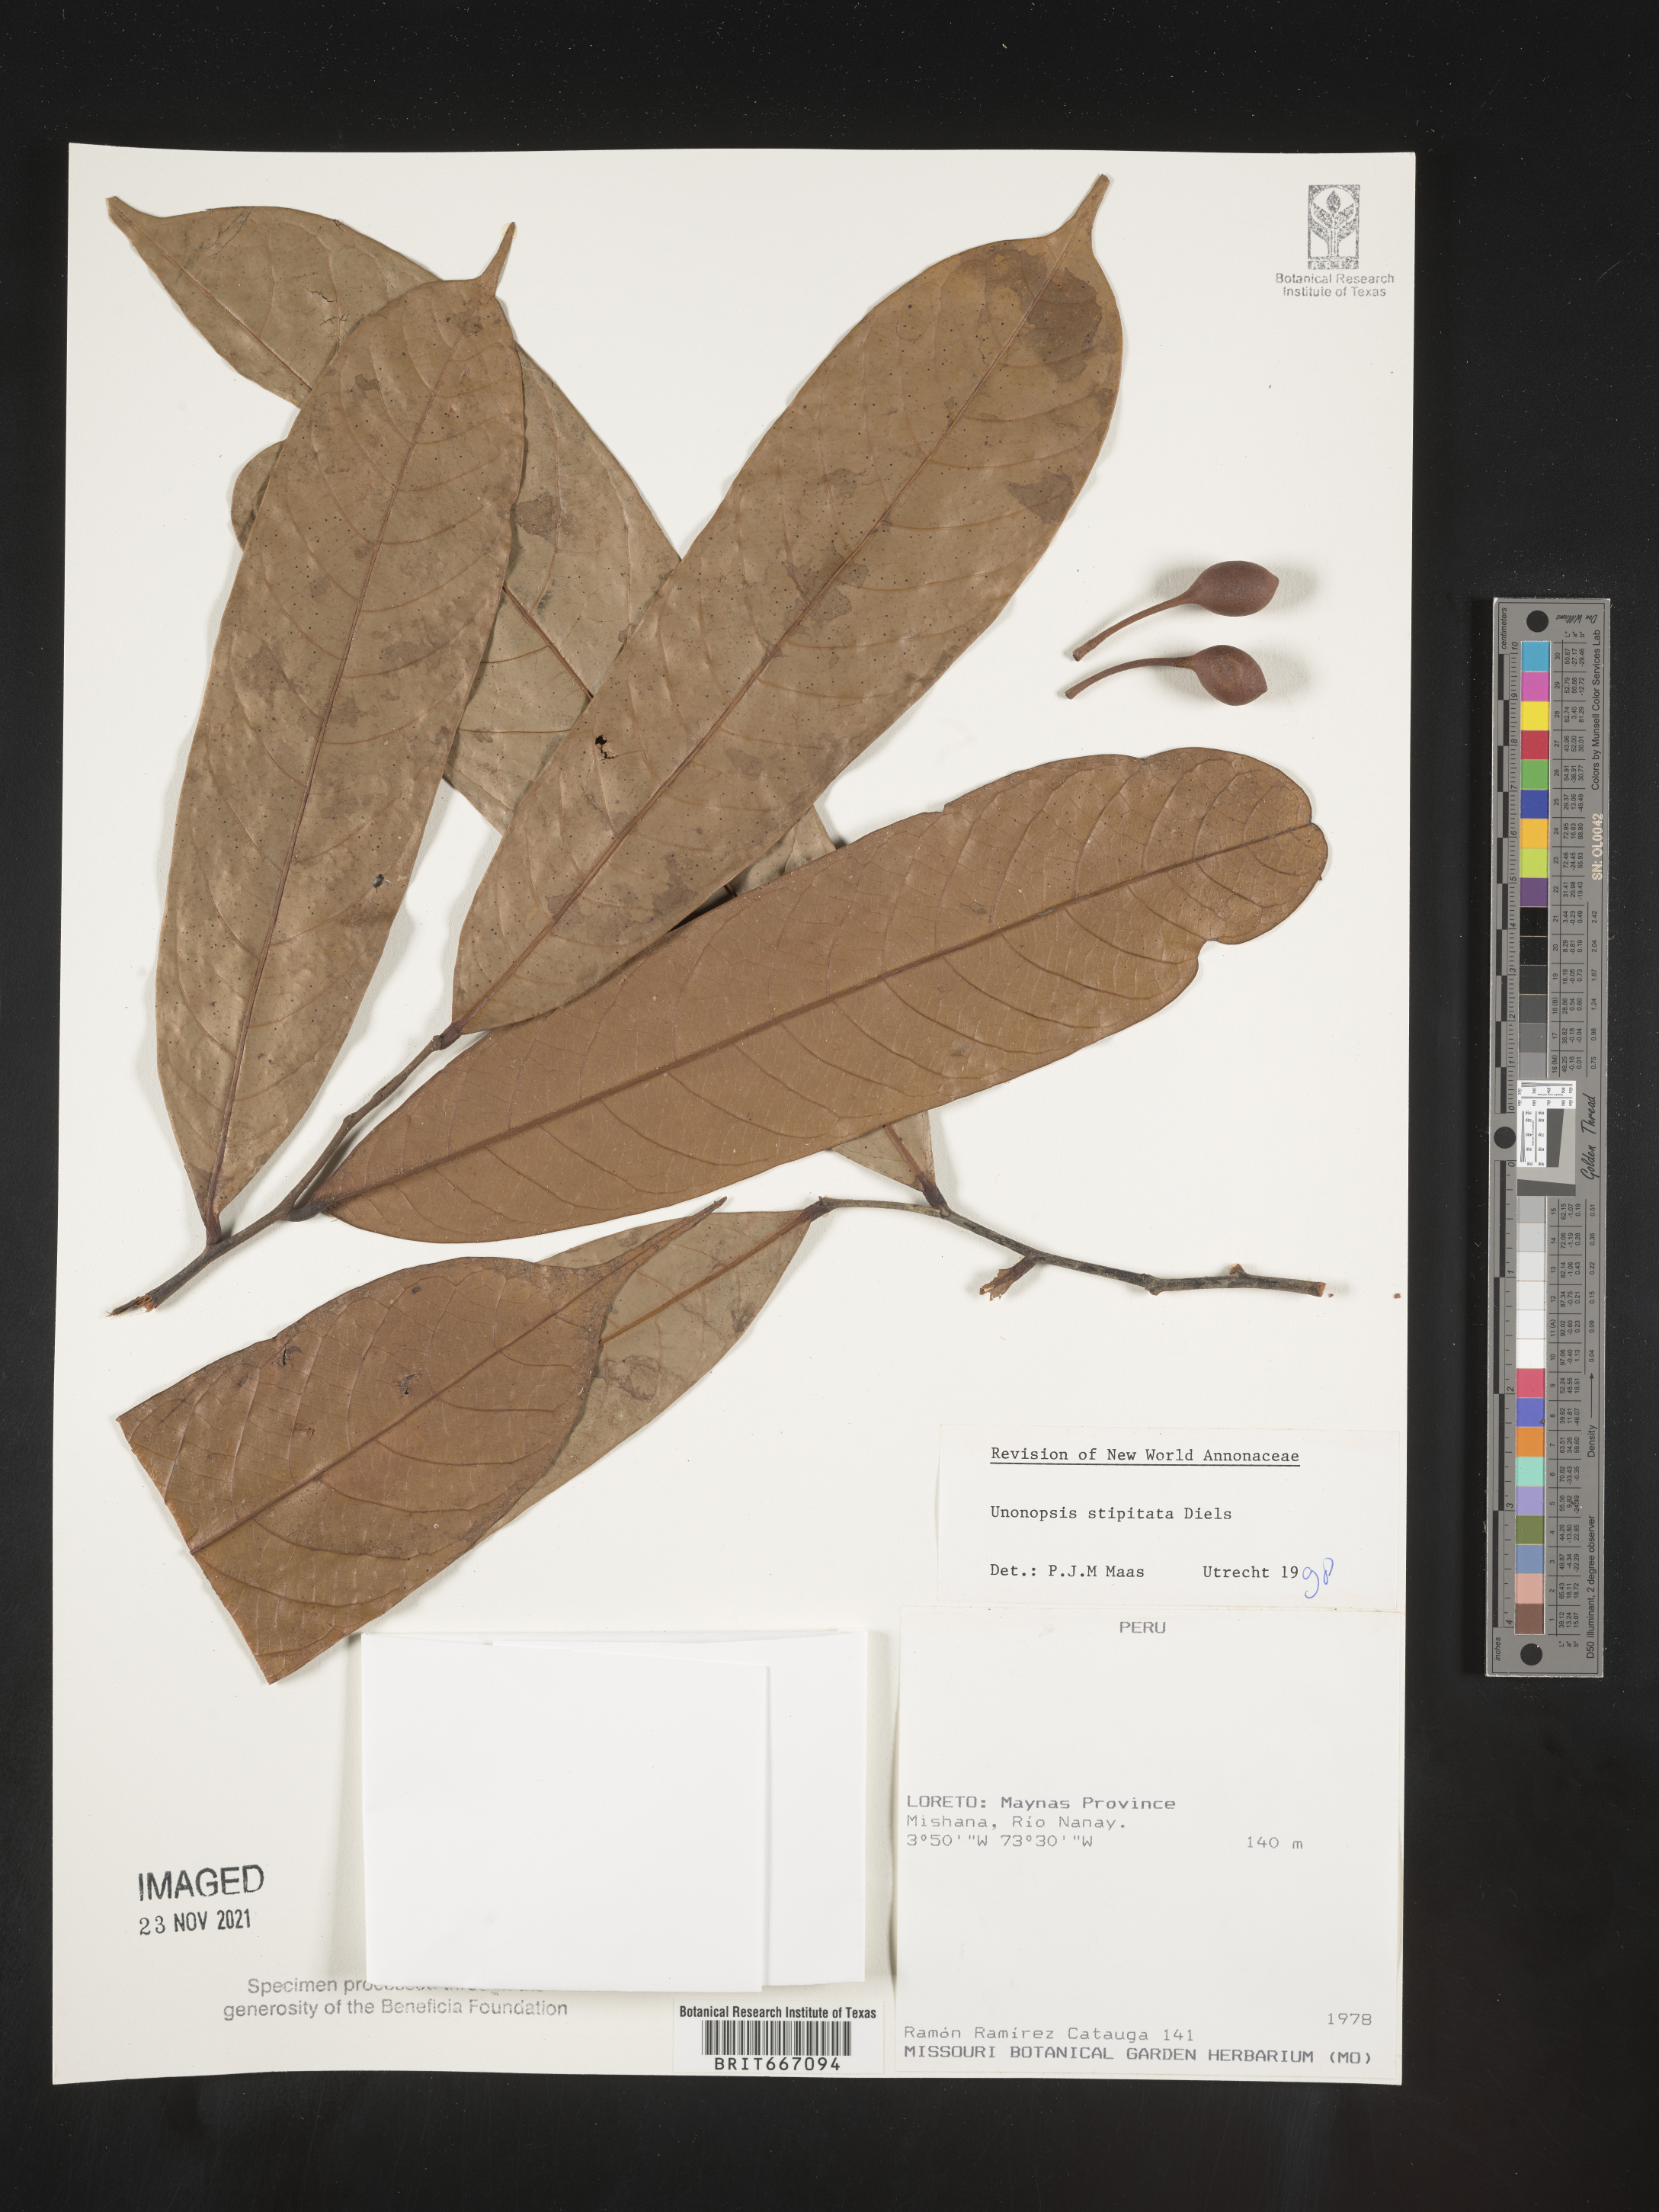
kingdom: Plantae
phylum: Tracheophyta
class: Magnoliopsida
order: Magnoliales
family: Annonaceae
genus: Unonopsis
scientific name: Unonopsis
